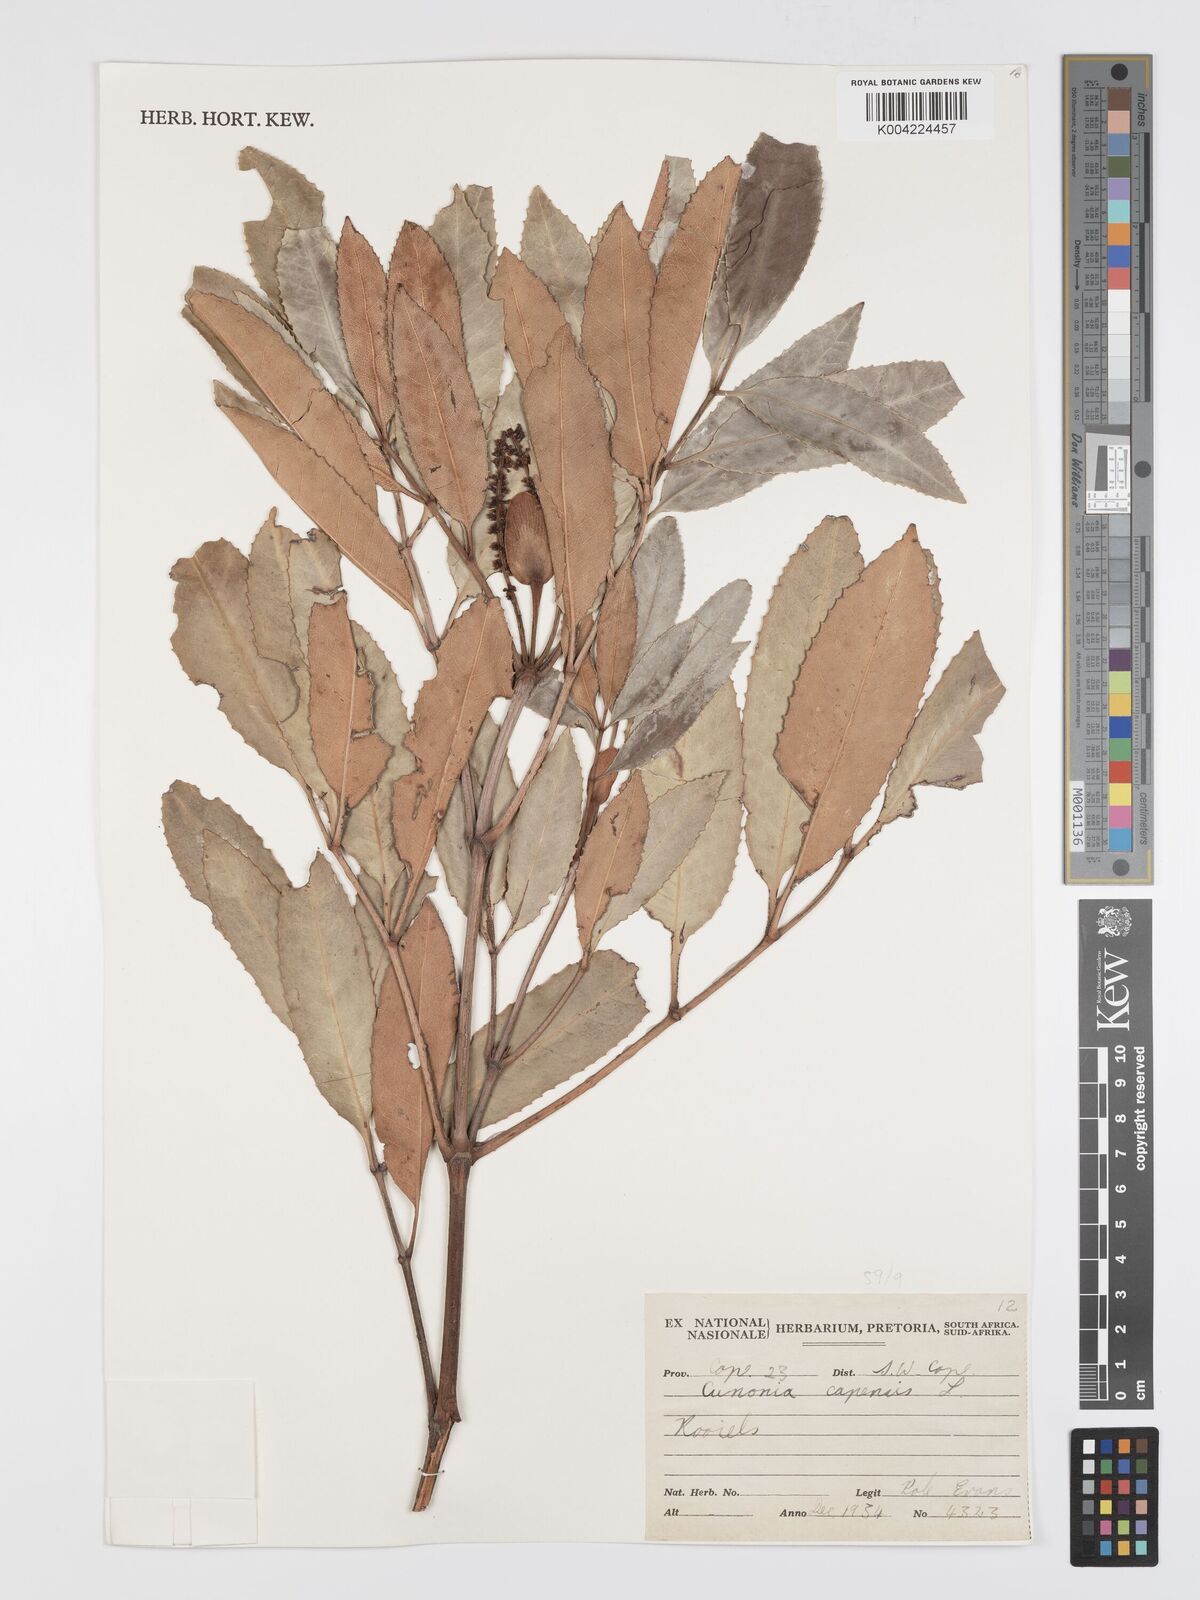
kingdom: Plantae
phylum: Tracheophyta
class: Magnoliopsida
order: Oxalidales
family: Cunoniaceae
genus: Cunonia
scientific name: Cunonia capensis
